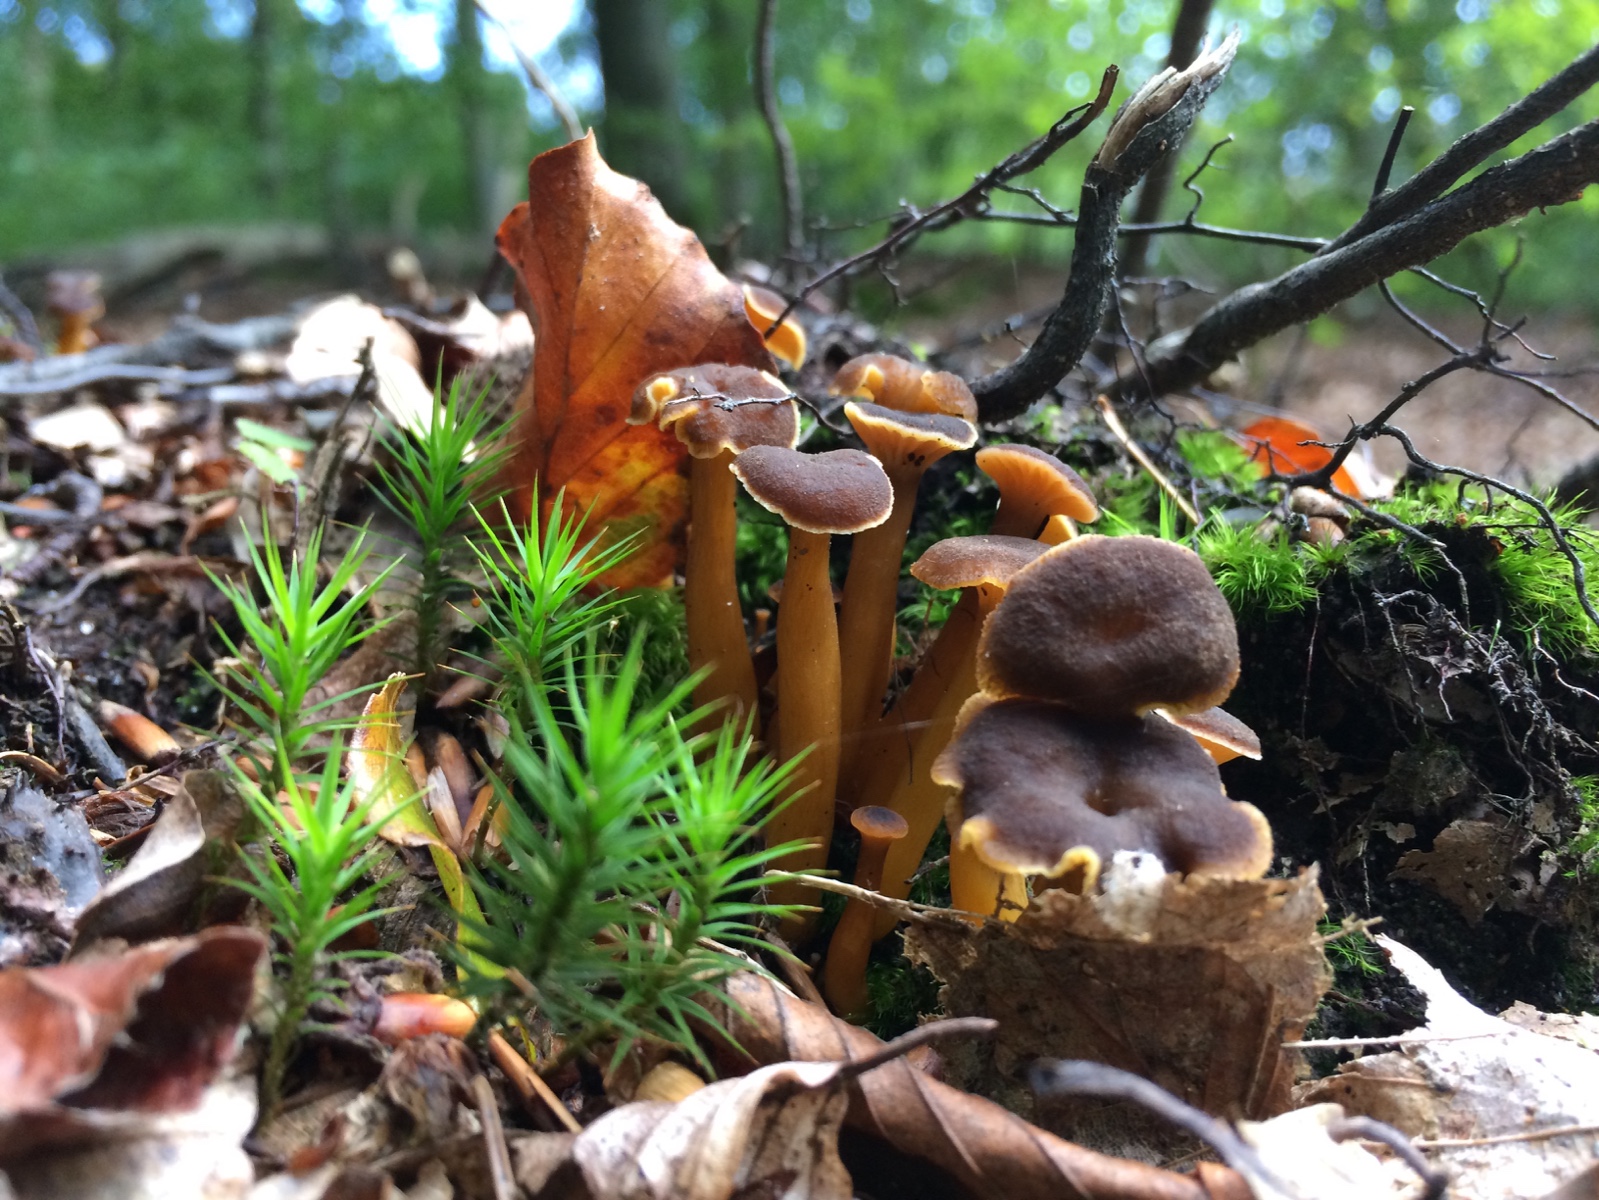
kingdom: Fungi
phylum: Basidiomycota
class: Agaricomycetes
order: Cantharellales
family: Hydnaceae
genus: Craterellus
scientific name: Craterellus tubaeformis
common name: tragt-kantarel
